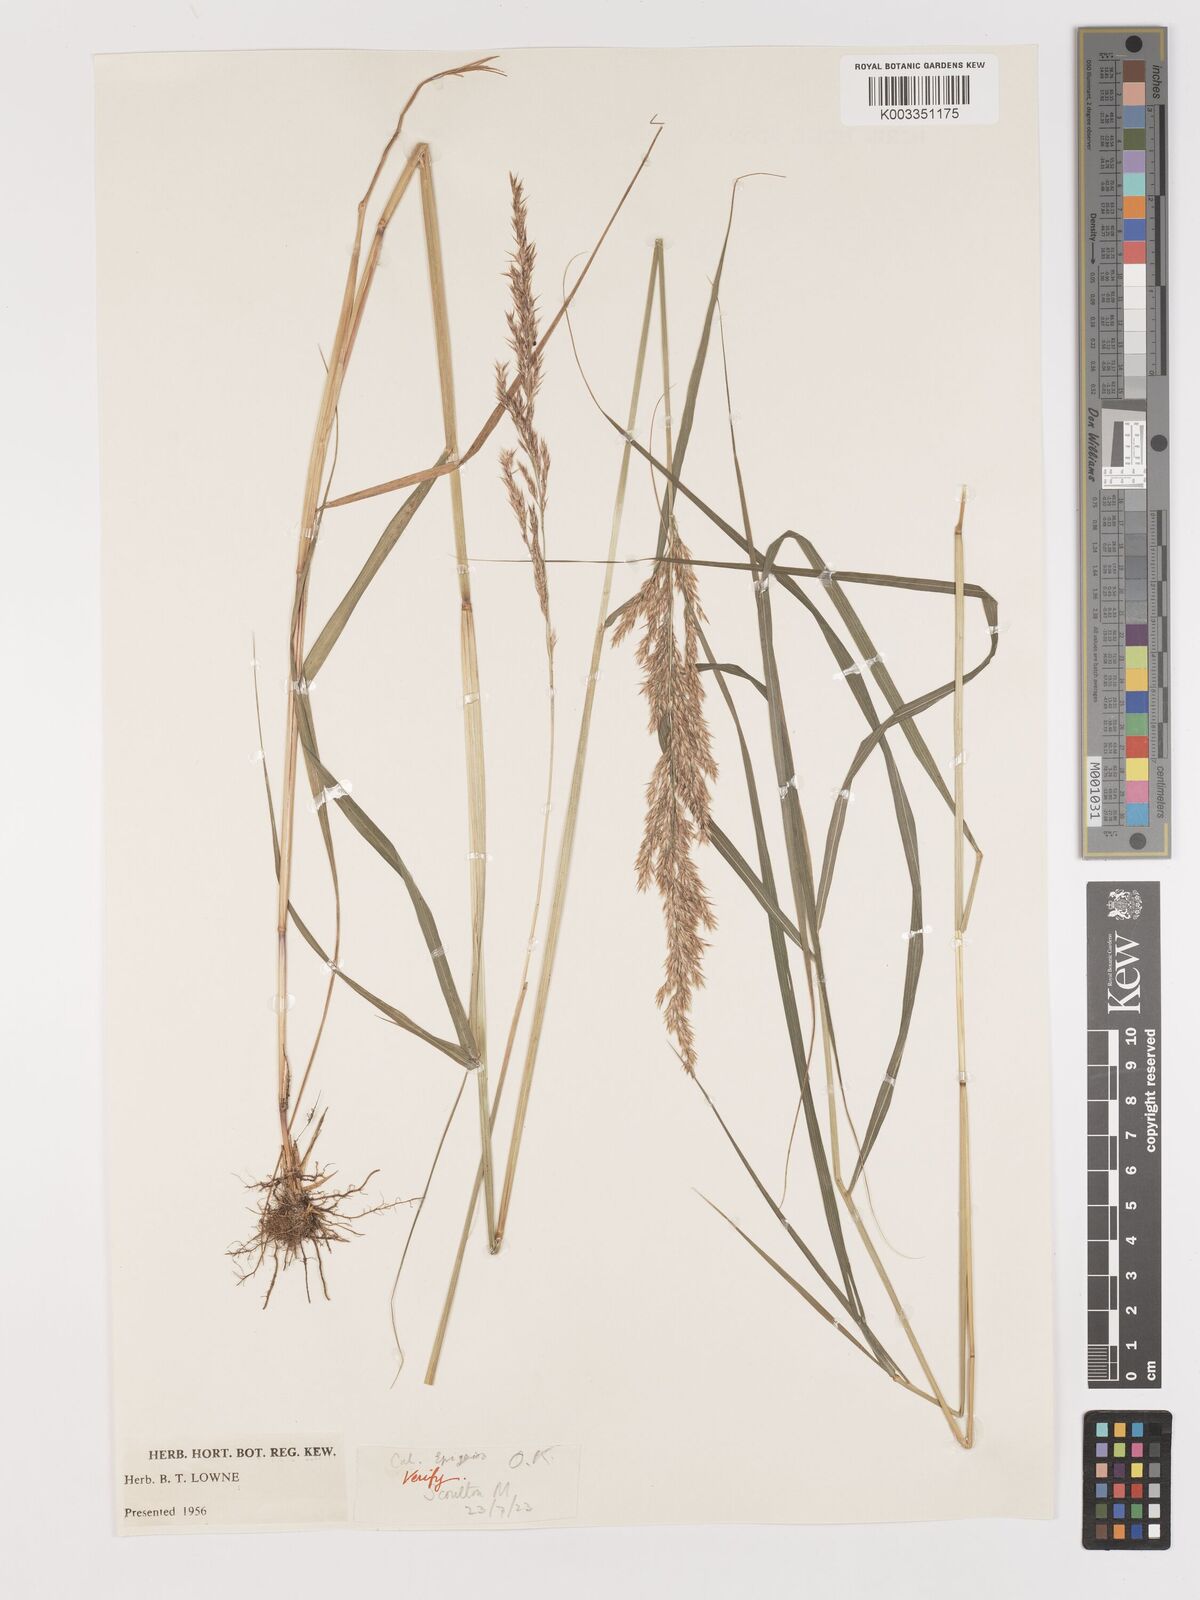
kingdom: Plantae
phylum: Tracheophyta
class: Liliopsida
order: Poales
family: Poaceae
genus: Calamagrostis
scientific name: Calamagrostis
